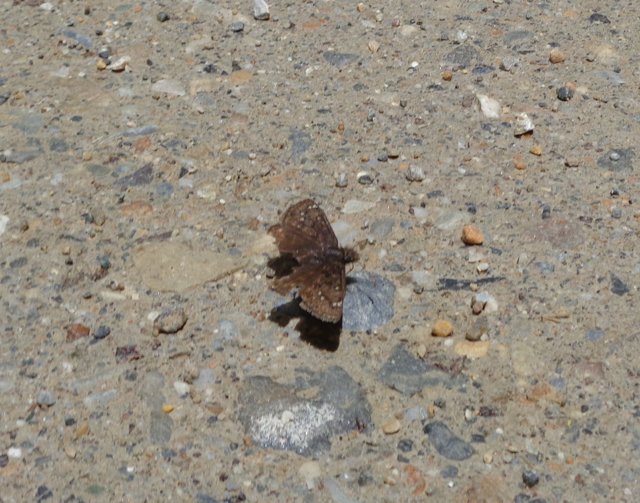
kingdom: Animalia
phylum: Arthropoda
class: Insecta
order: Lepidoptera
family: Hesperiidae
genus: Gesta
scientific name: Gesta
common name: Juvenal's Duskywing
